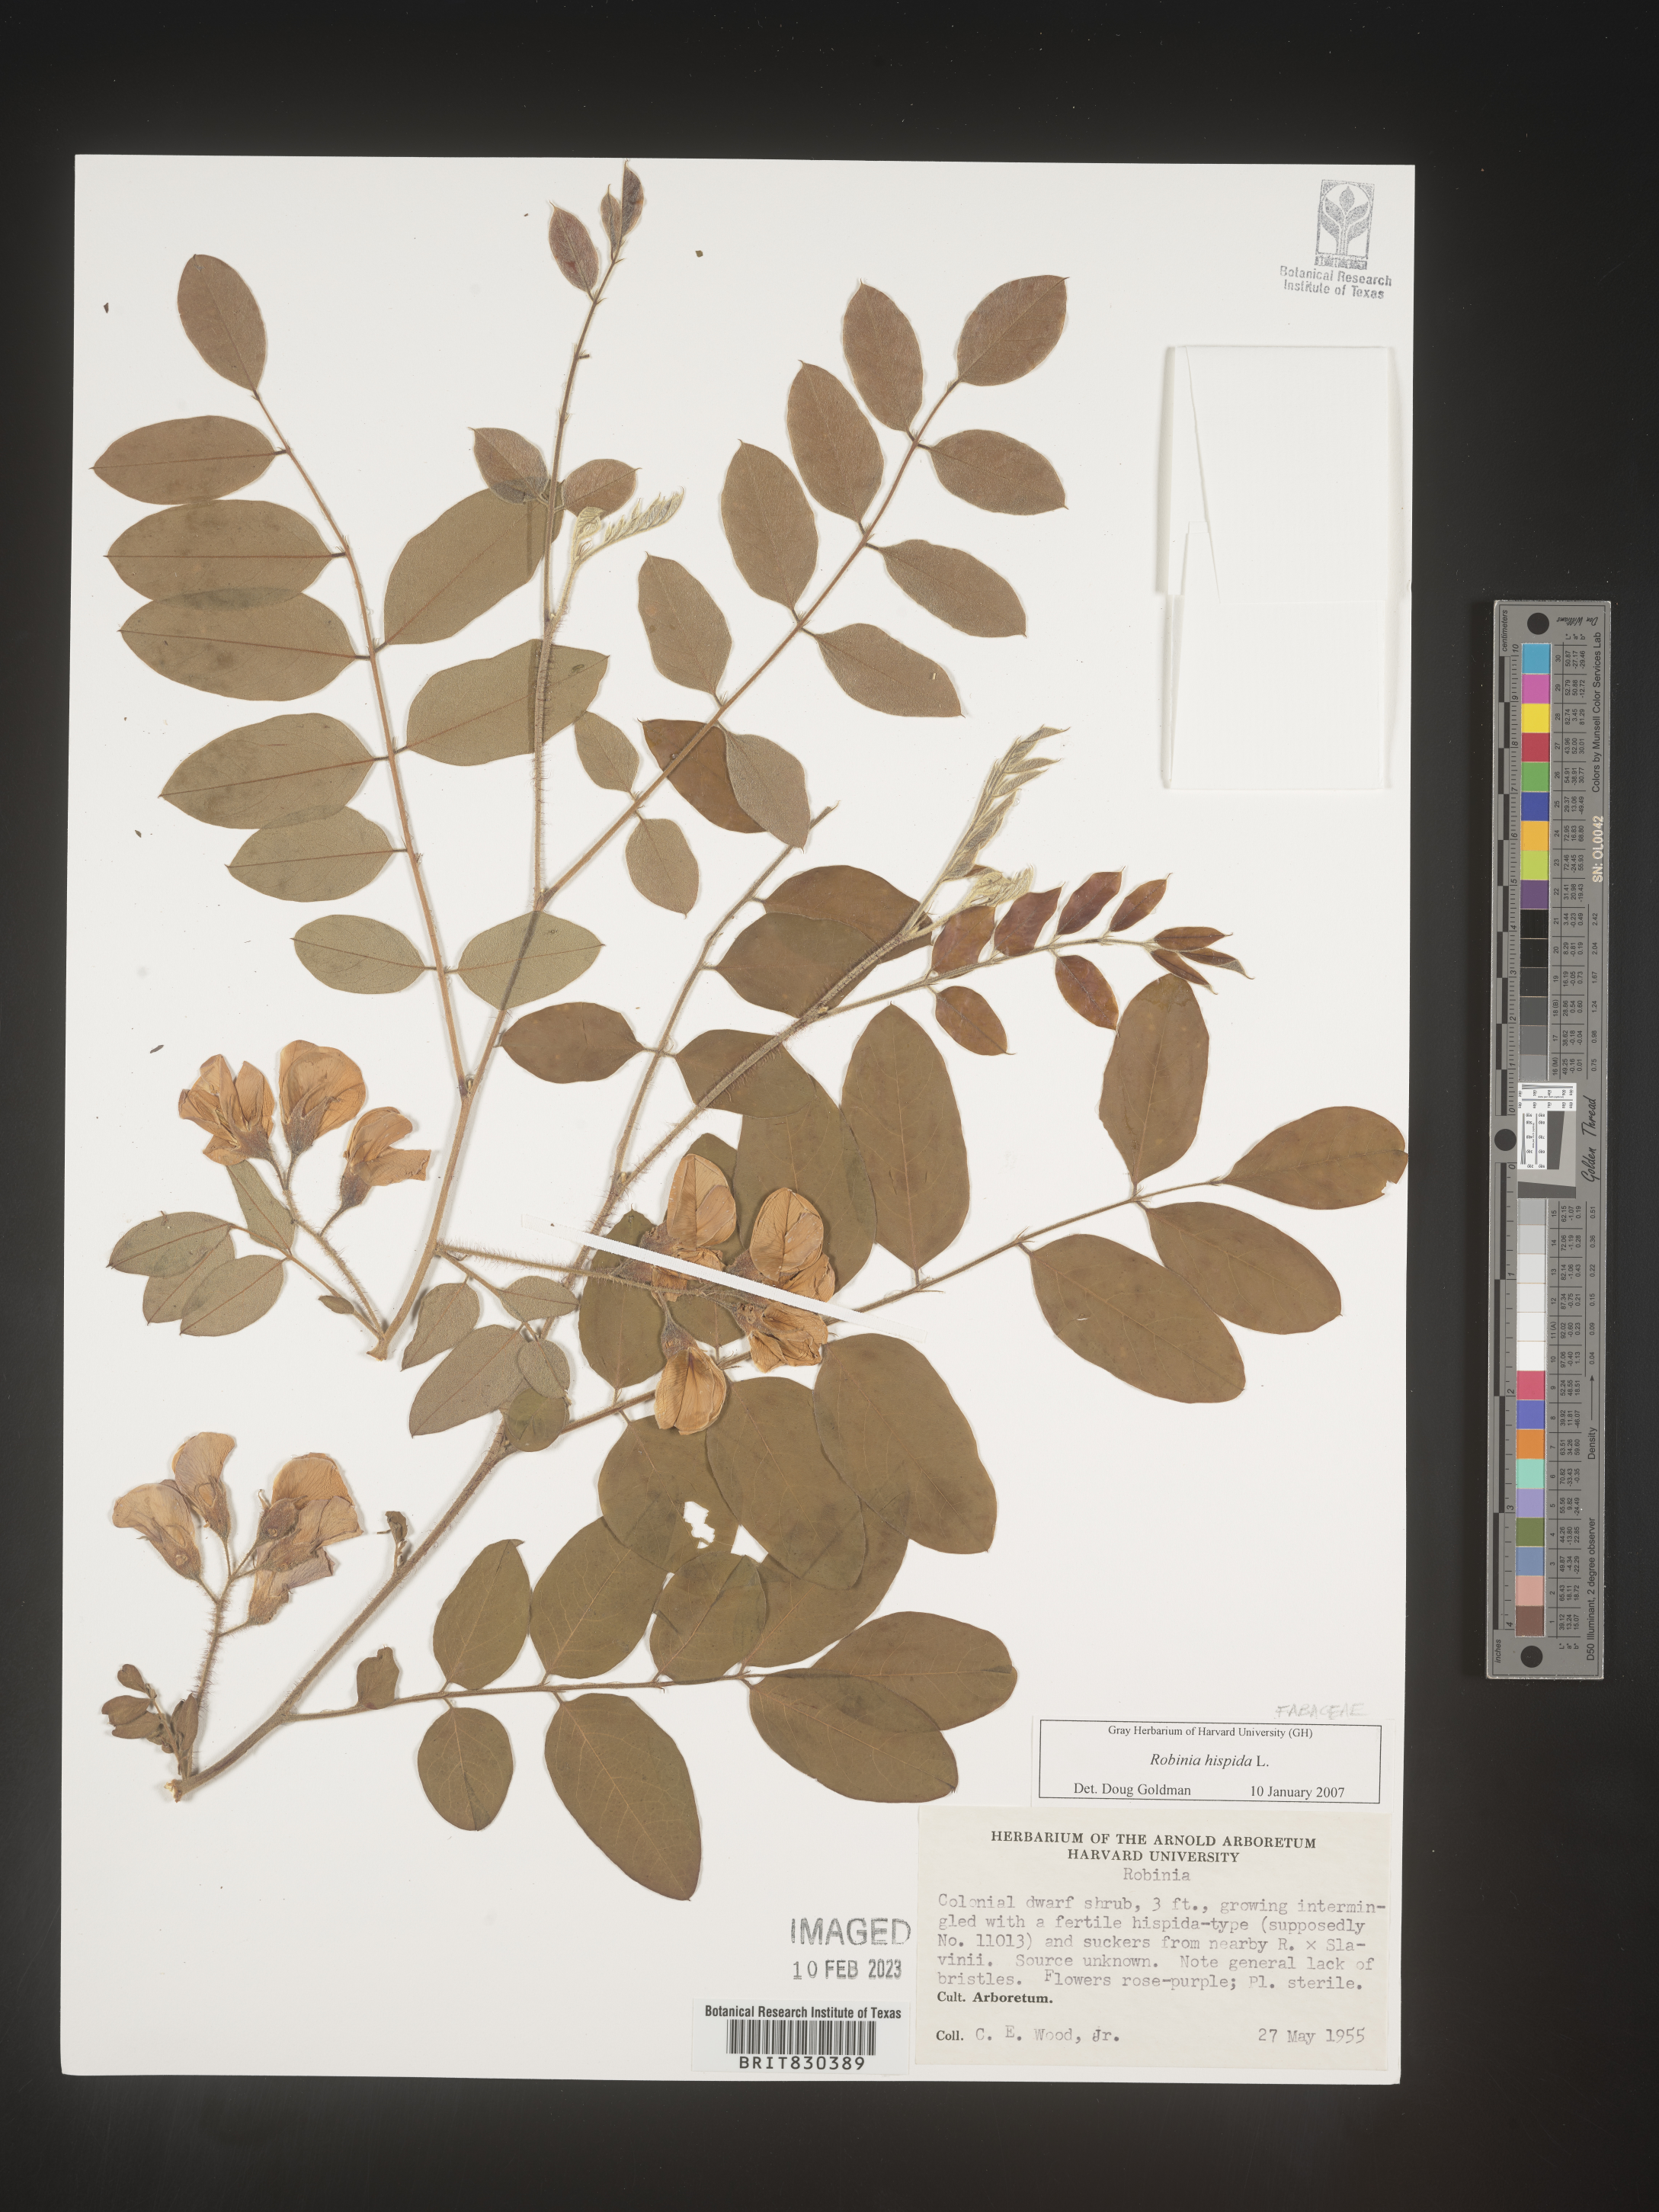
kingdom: Plantae
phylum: Tracheophyta
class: Magnoliopsida
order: Fabales
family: Fabaceae
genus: Robinia
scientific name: Robinia hispida
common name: Bristly locust
